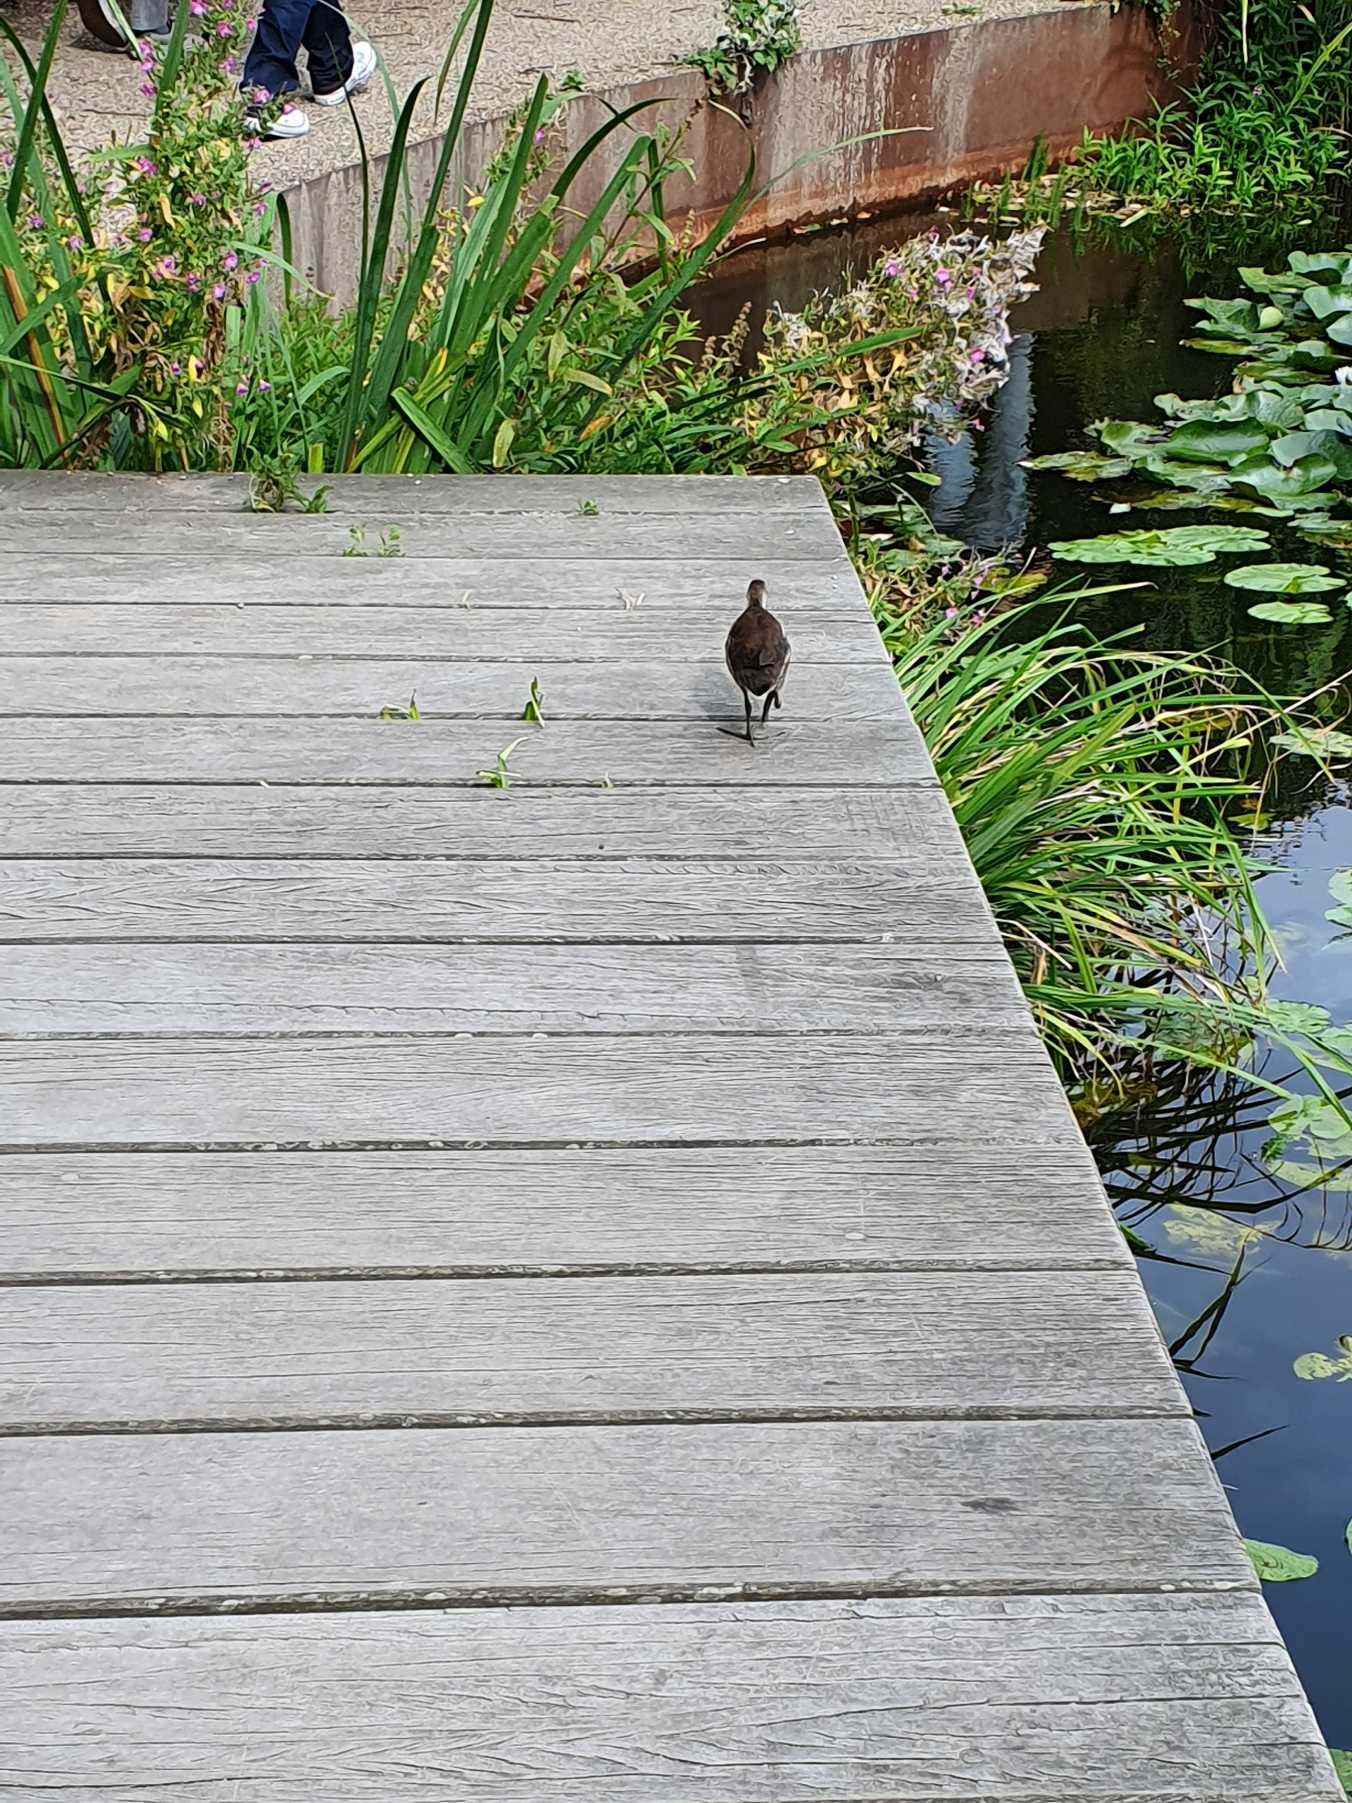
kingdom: Animalia
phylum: Chordata
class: Aves
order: Gruiformes
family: Rallidae
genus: Gallinula
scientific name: Gallinula chloropus
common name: Grønbenet rørhøne
